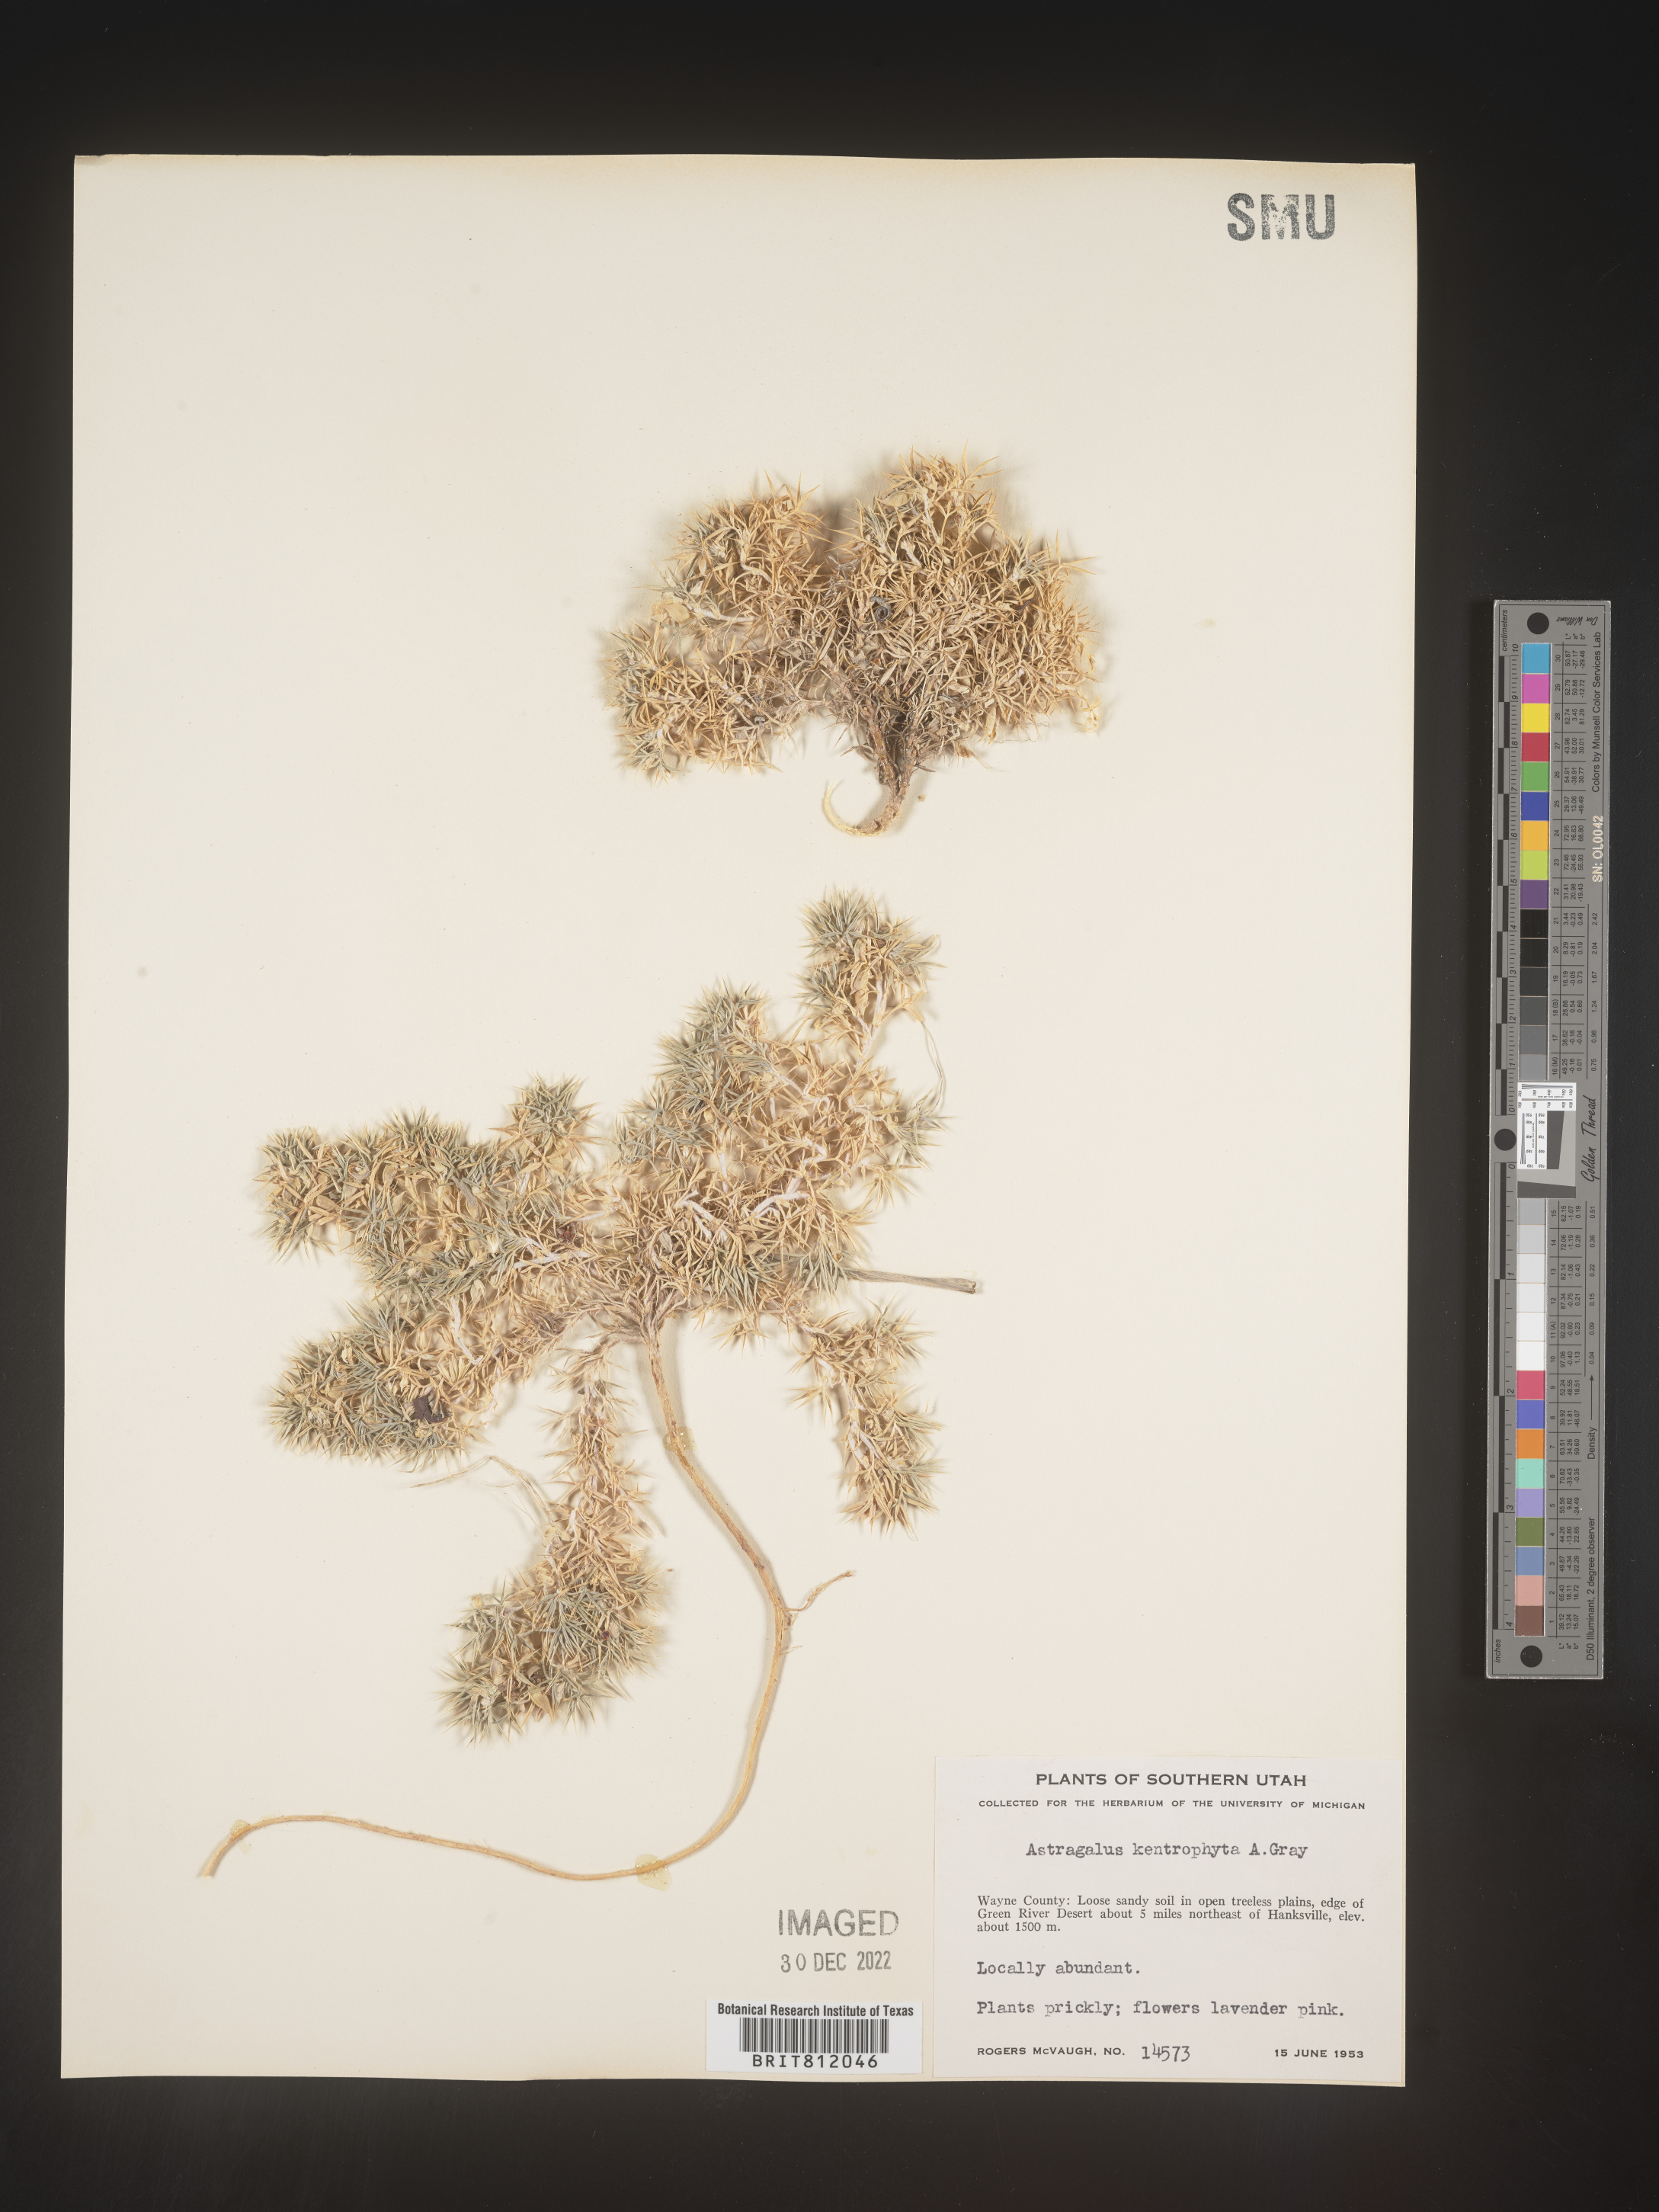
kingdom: Plantae
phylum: Tracheophyta
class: Magnoliopsida
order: Fabales
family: Fabaceae
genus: Astragalus
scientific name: Astragalus kentrophyta
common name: Prickly milk-vetch
